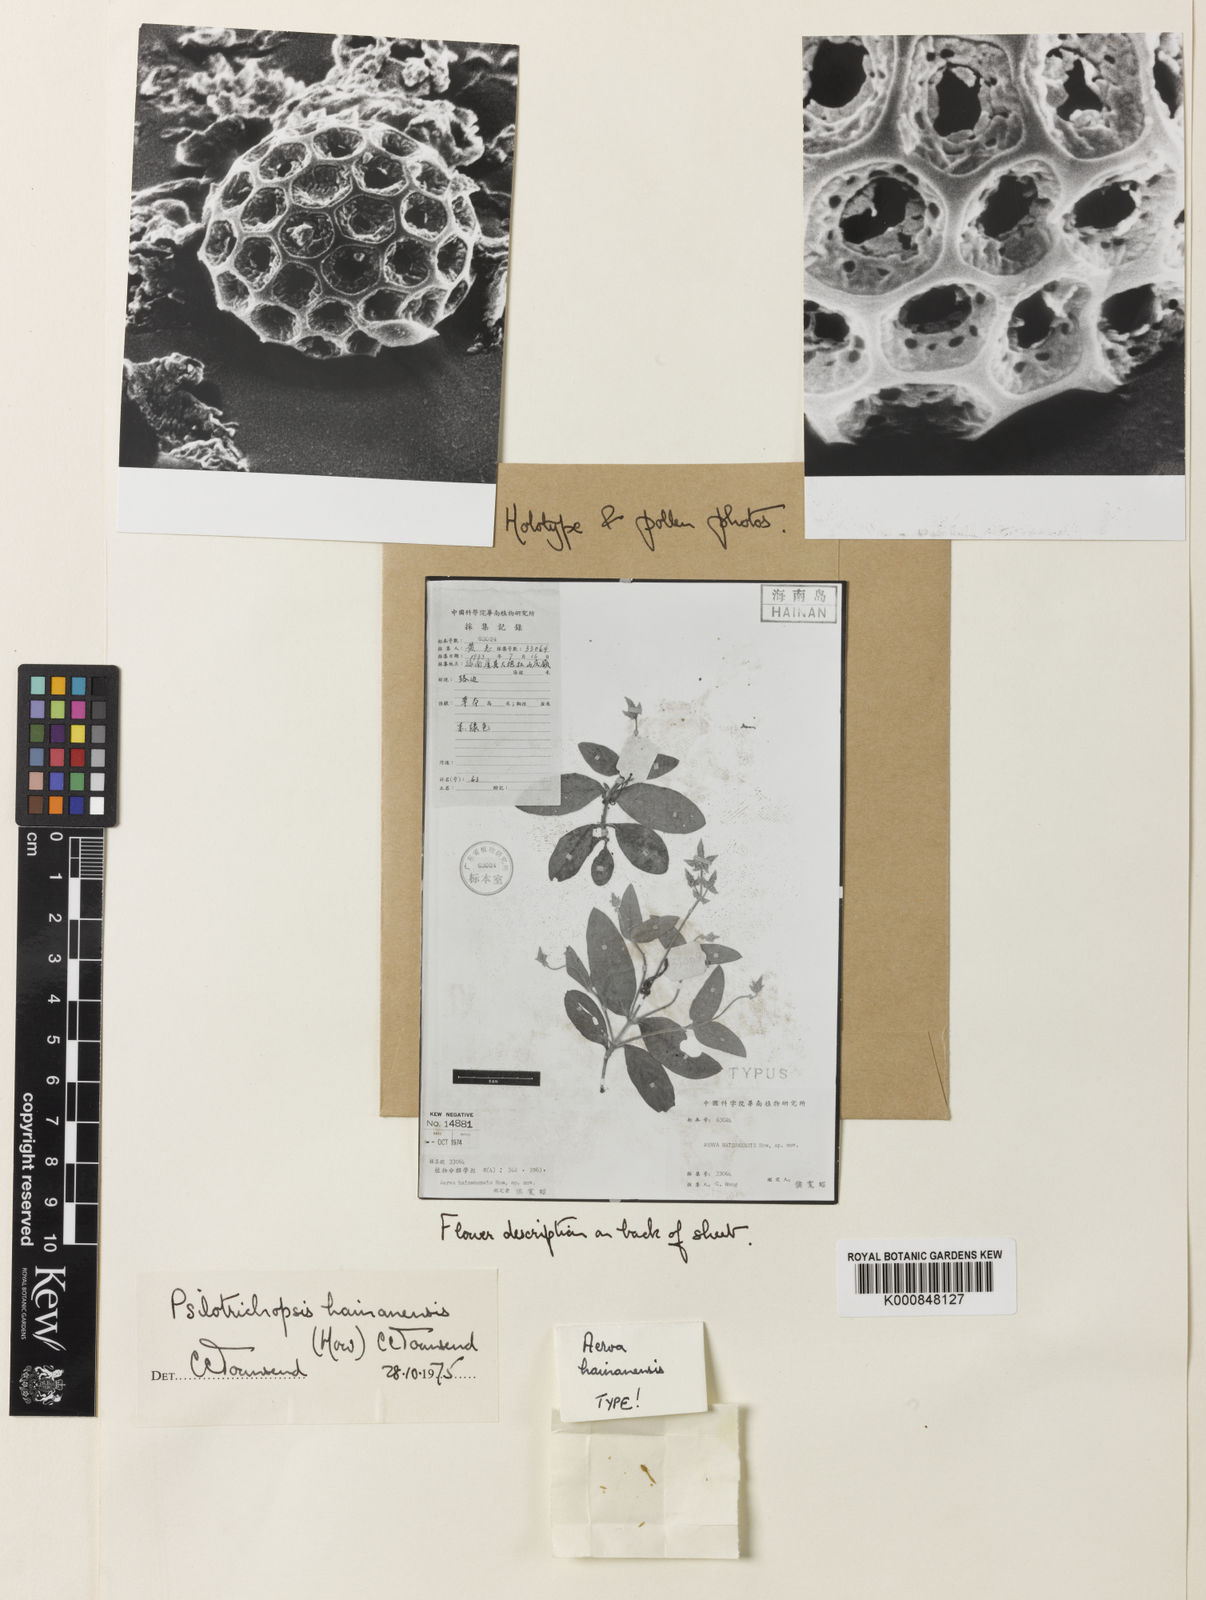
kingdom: Plantae
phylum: Tracheophyta
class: Magnoliopsida
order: Caryophyllales
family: Amaranthaceae
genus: Psilotrichopsis
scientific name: Psilotrichopsis curtisii
